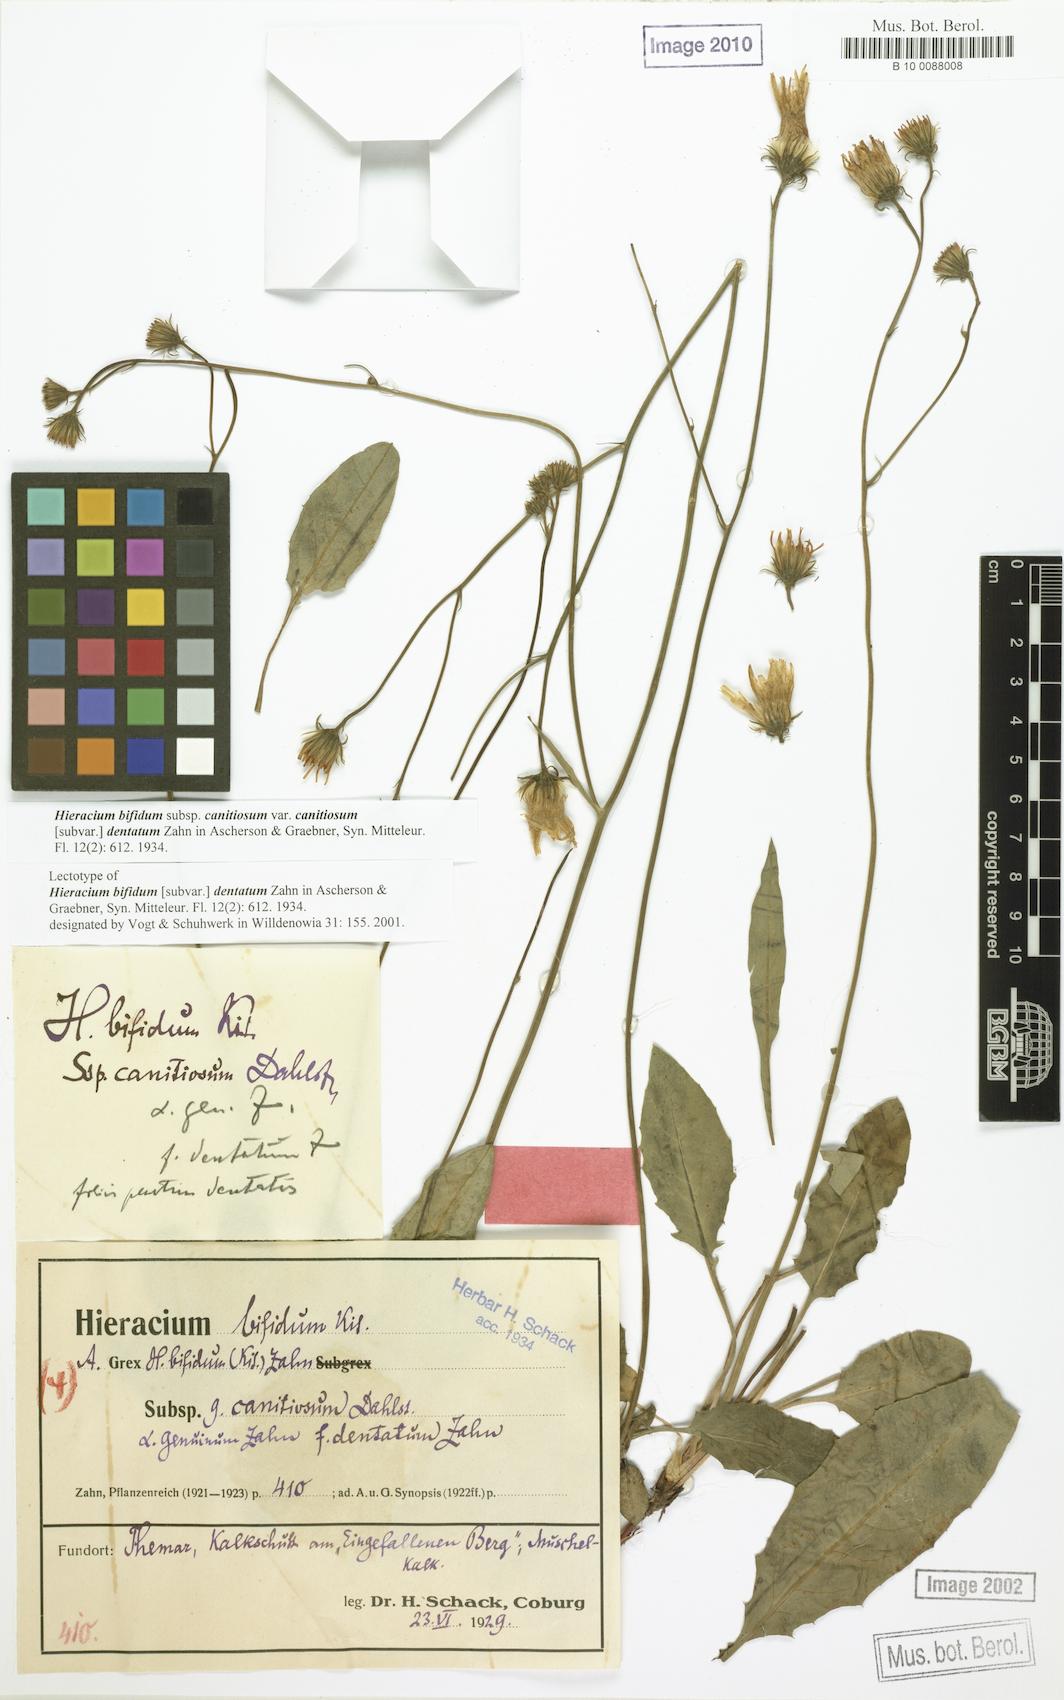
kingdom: Plantae
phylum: Tracheophyta
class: Magnoliopsida
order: Asterales
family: Asteraceae
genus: Hieracium
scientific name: Hieracium bifidum
